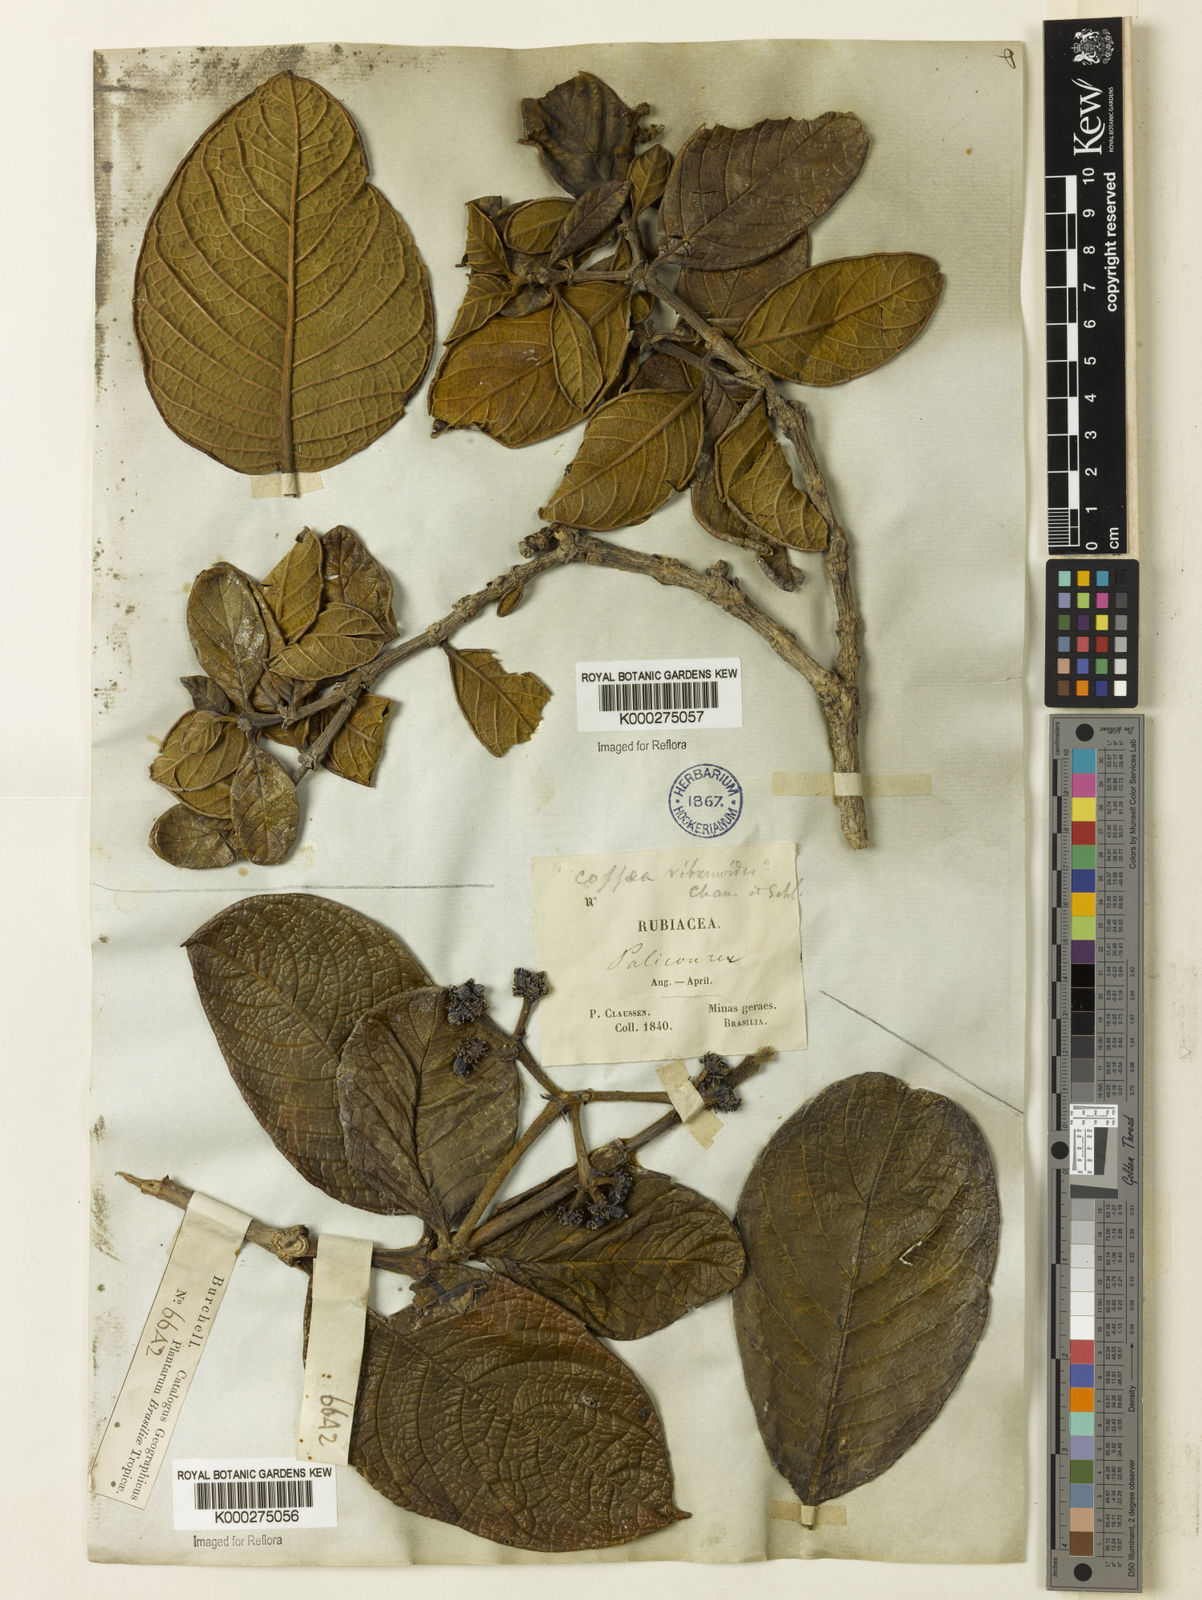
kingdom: Plantae
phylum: Tracheophyta
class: Magnoliopsida
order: Gentianales
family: Rubiaceae
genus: Rudgea
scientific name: Rudgea citrifolia
